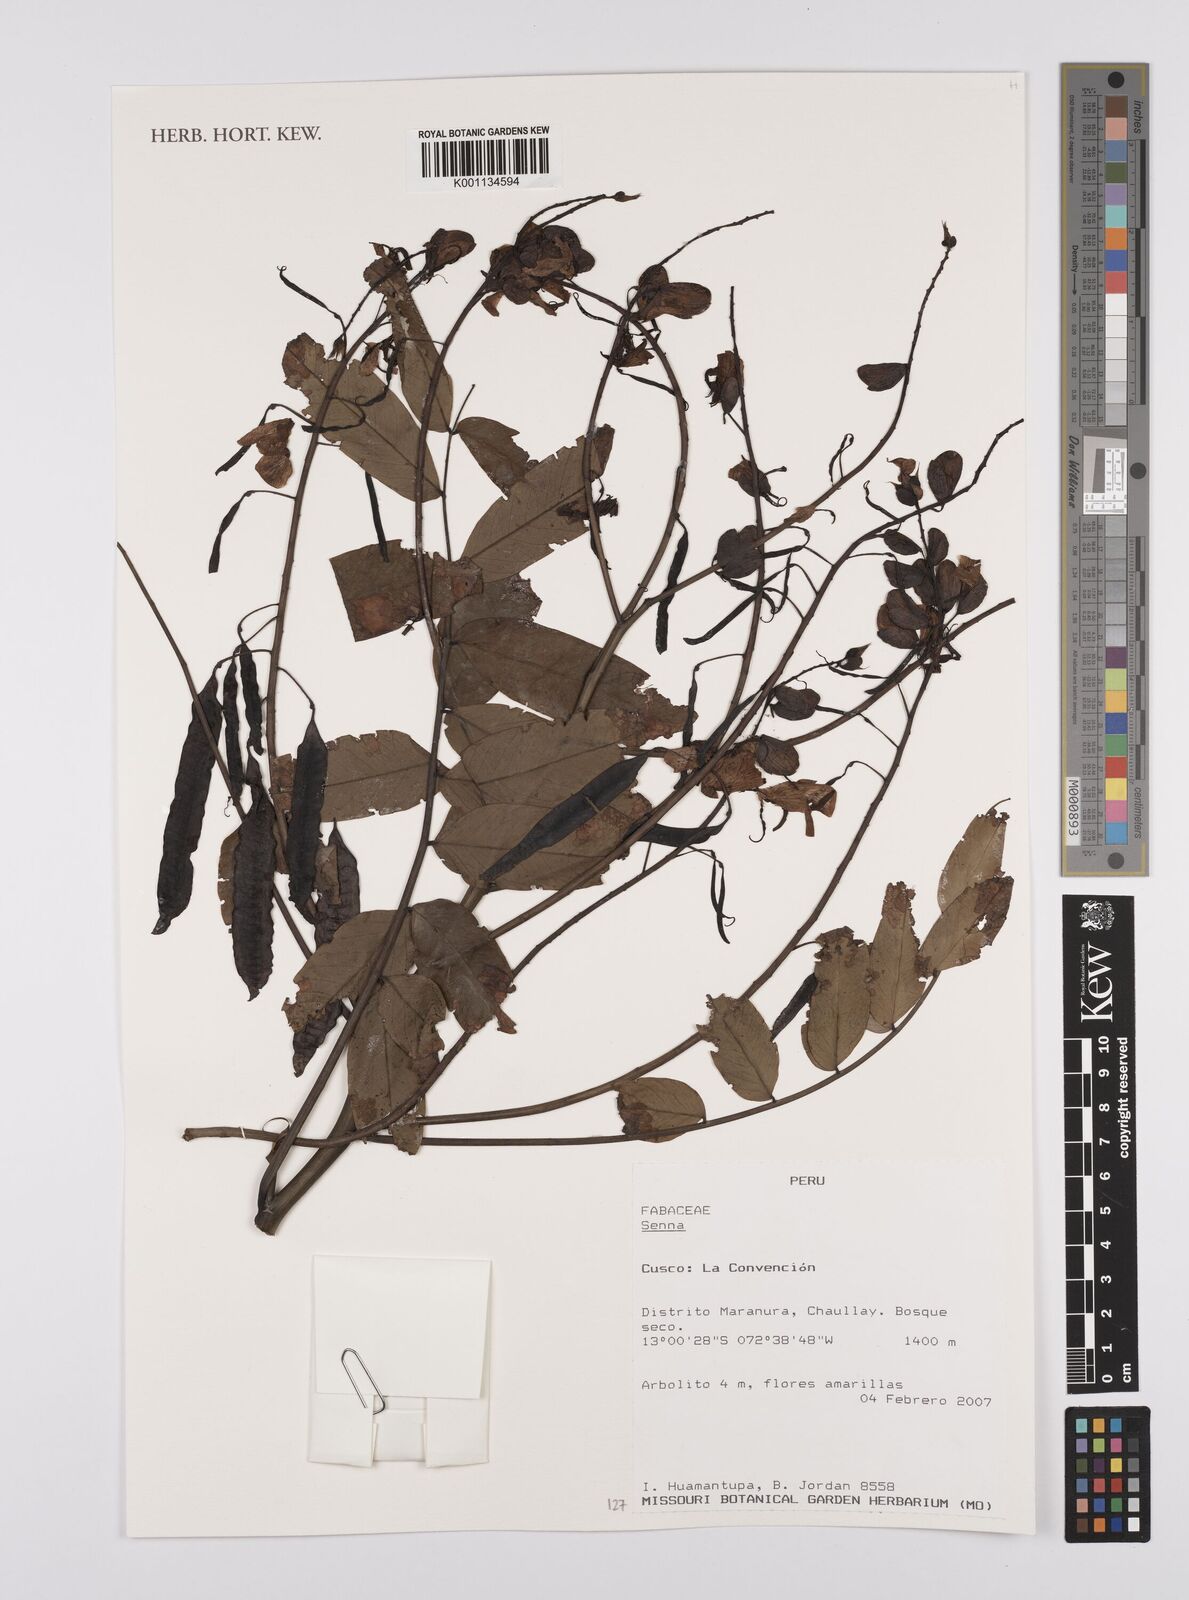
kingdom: Plantae
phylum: Tracheophyta
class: Magnoliopsida
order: Fabales
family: Fabaceae
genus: Senna
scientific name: Senna
